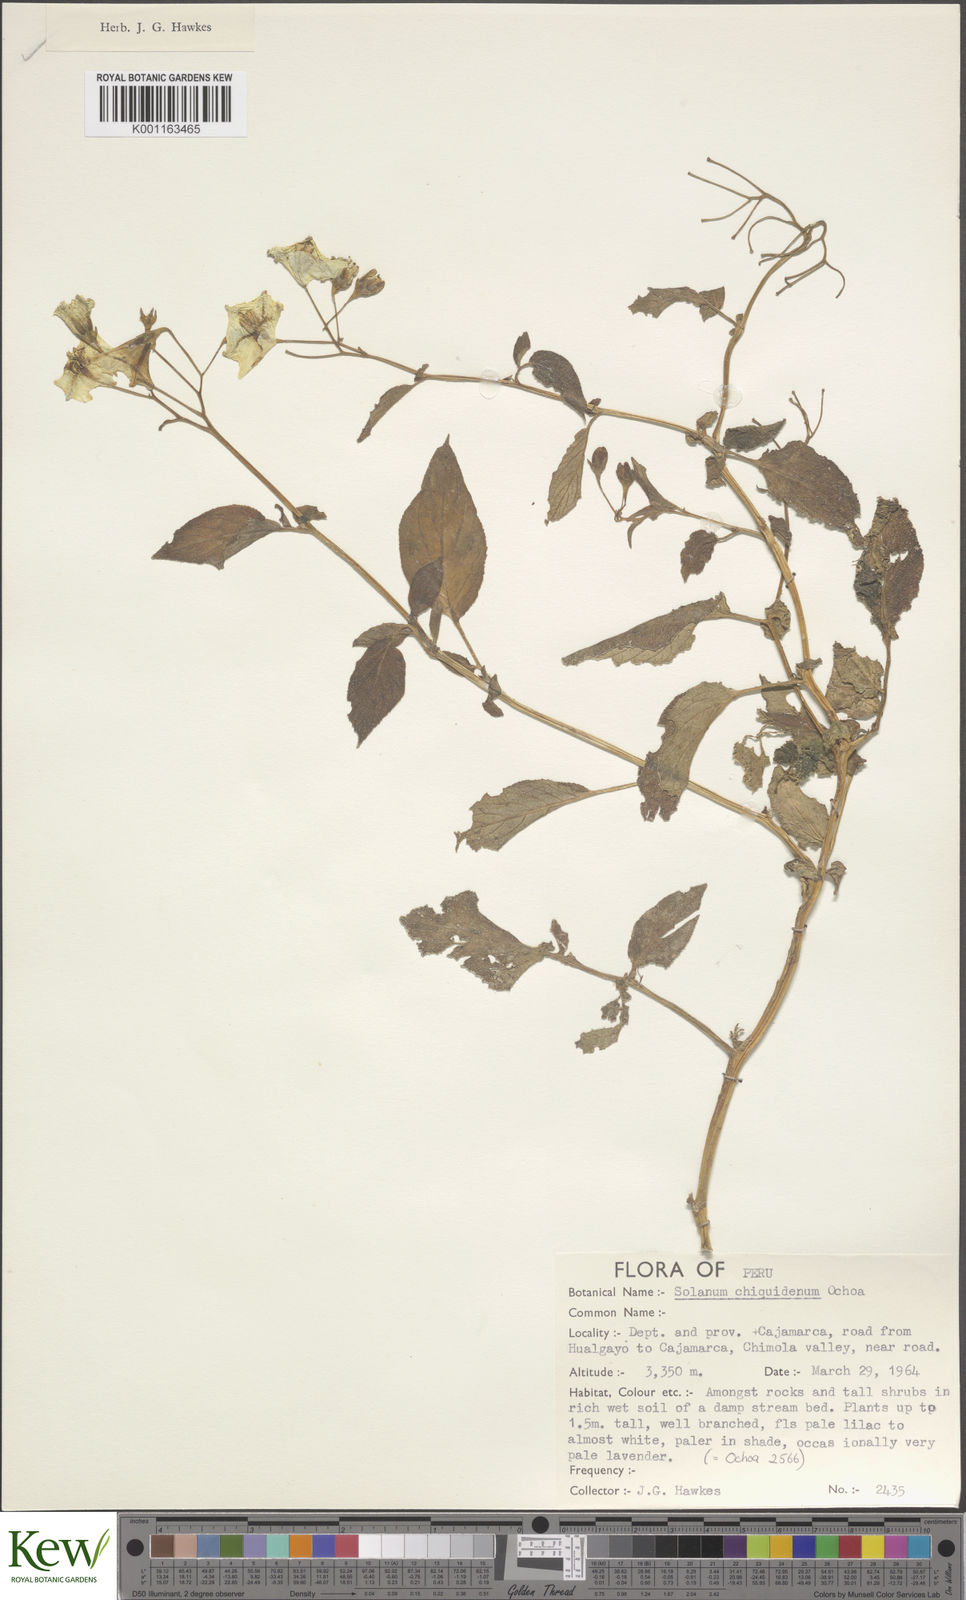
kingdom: Plantae
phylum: Tracheophyta
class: Magnoliopsida
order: Solanales
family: Solanaceae
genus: Solanum
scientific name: Solanum chiquidenum
